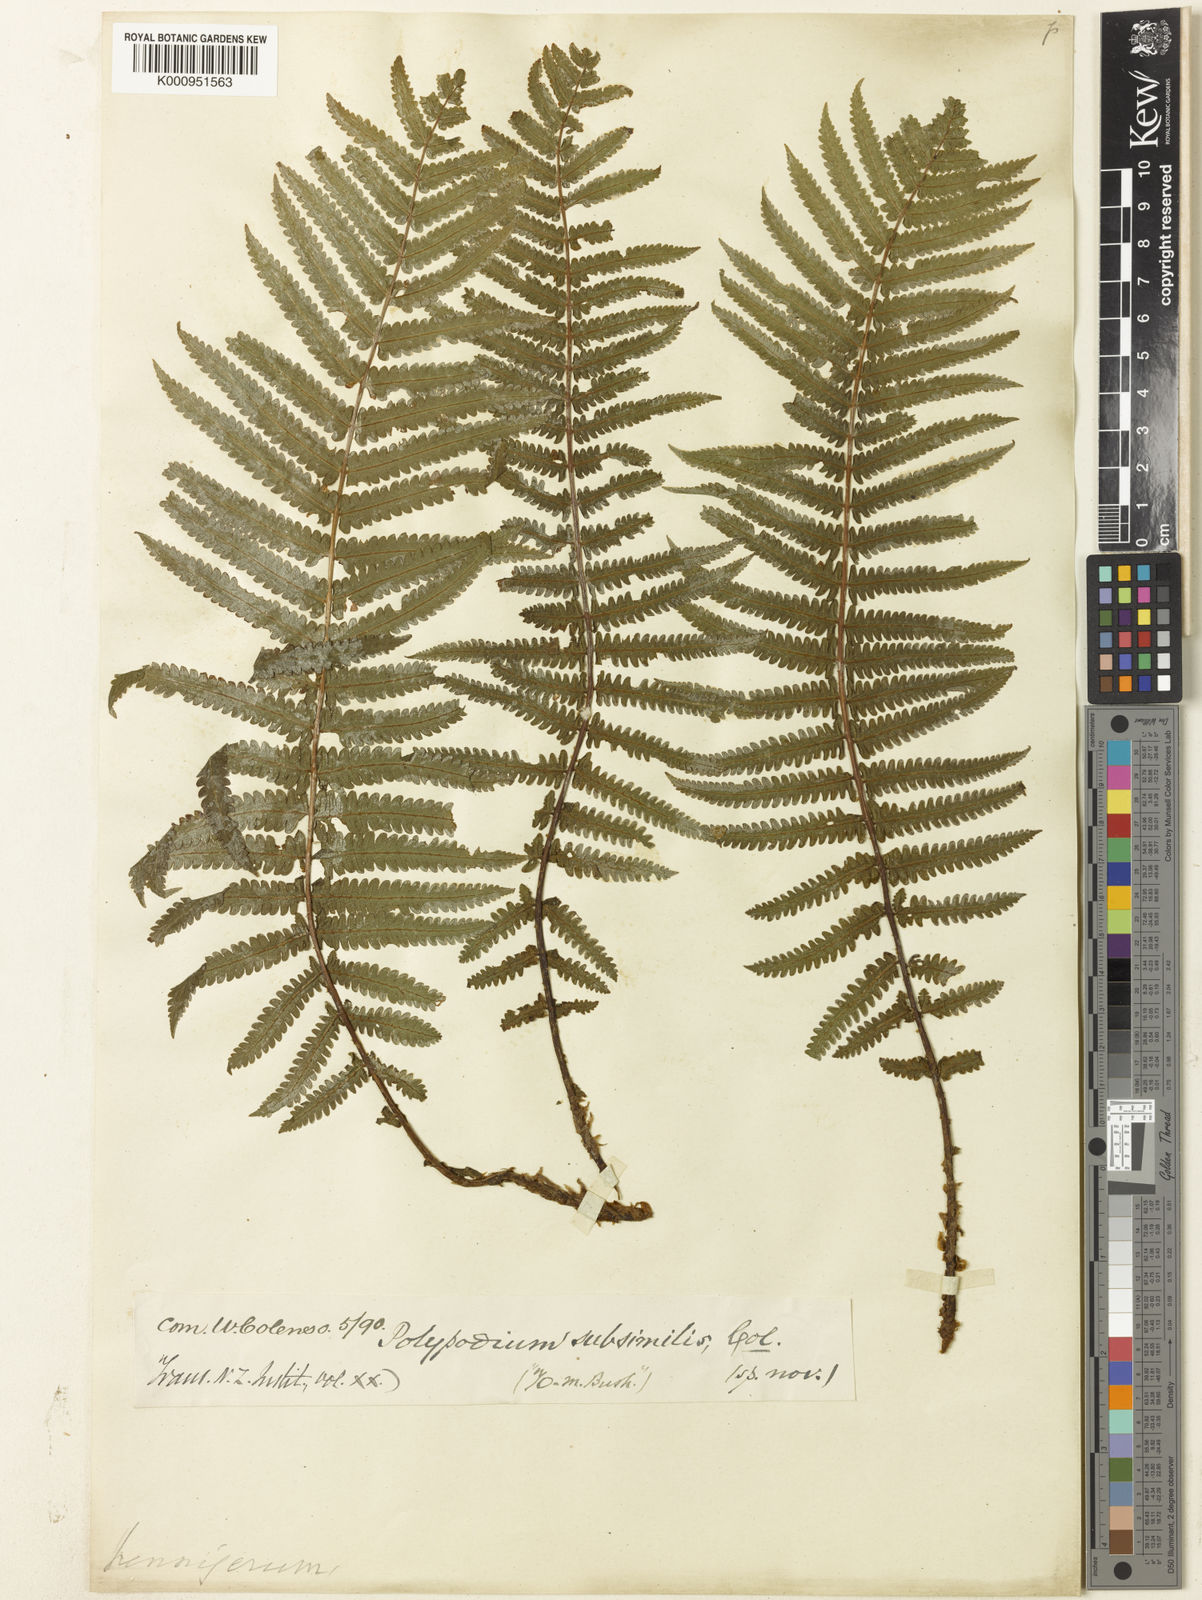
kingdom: Plantae
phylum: Tracheophyta
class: Polypodiopsida
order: Polypodiales
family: Thelypteridaceae
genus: Pakau
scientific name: Pakau pennigera
